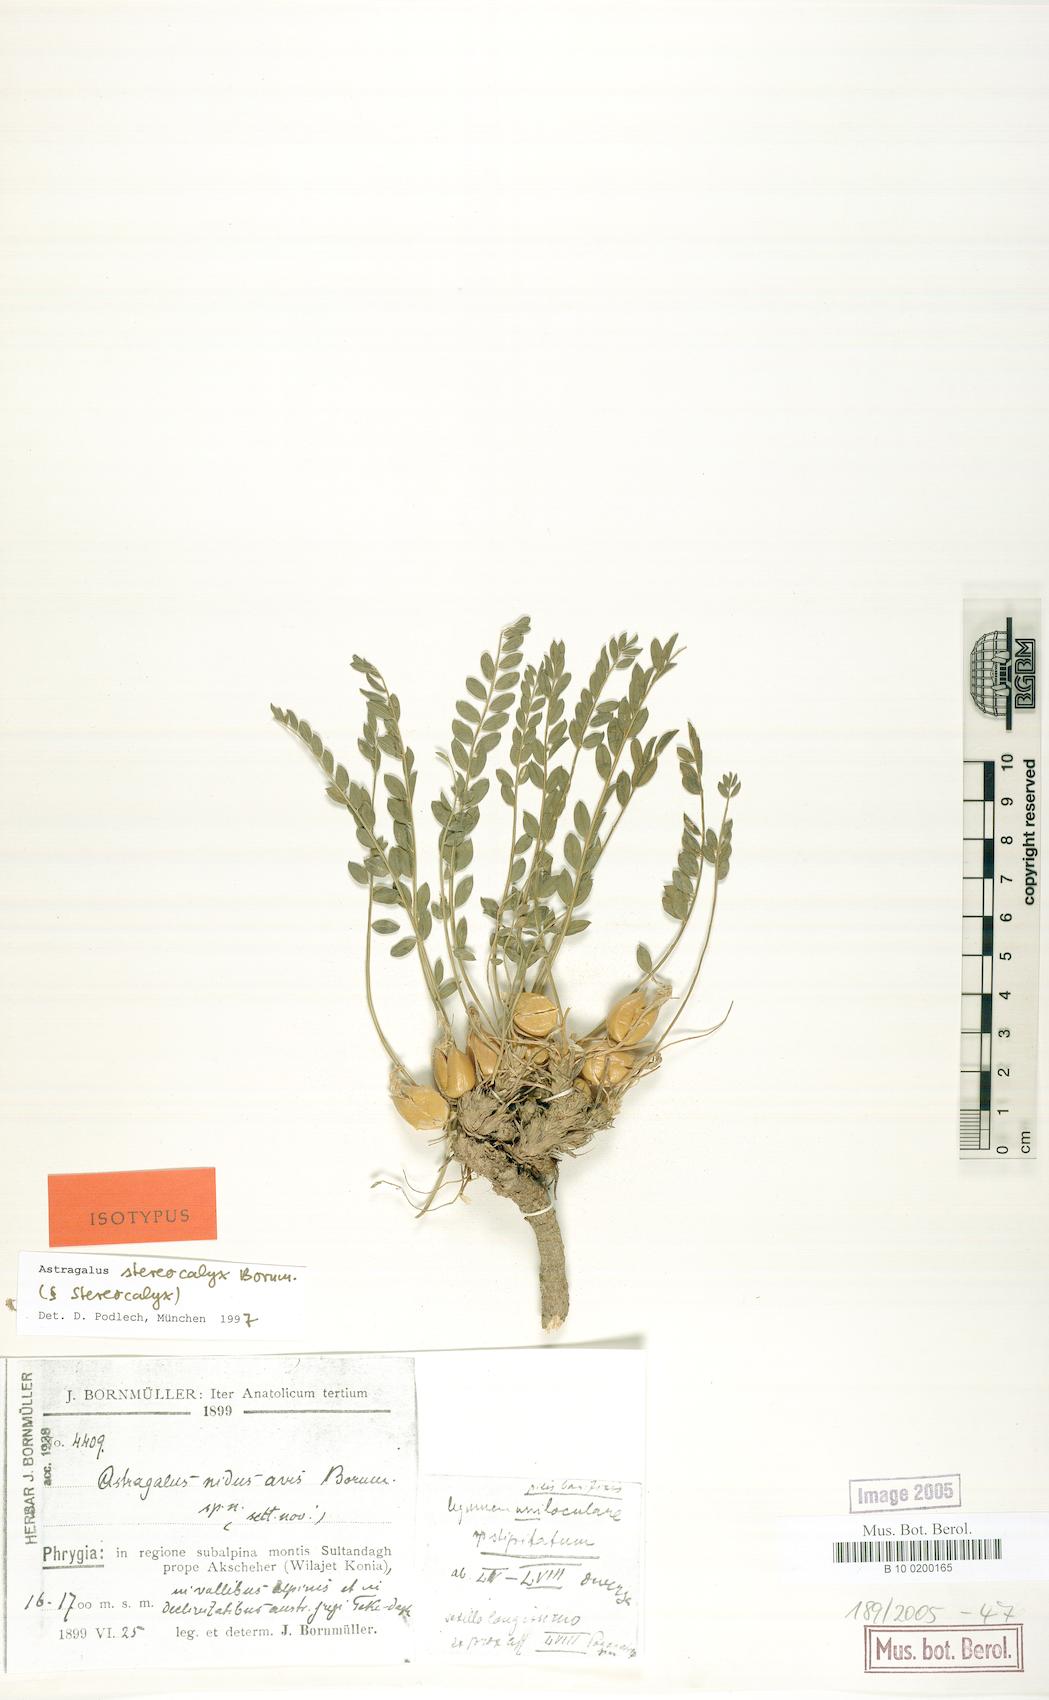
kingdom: Plantae
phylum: Tracheophyta
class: Magnoliopsida
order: Fabales
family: Fabaceae
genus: Astragalus
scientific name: Astragalus physocalyx
